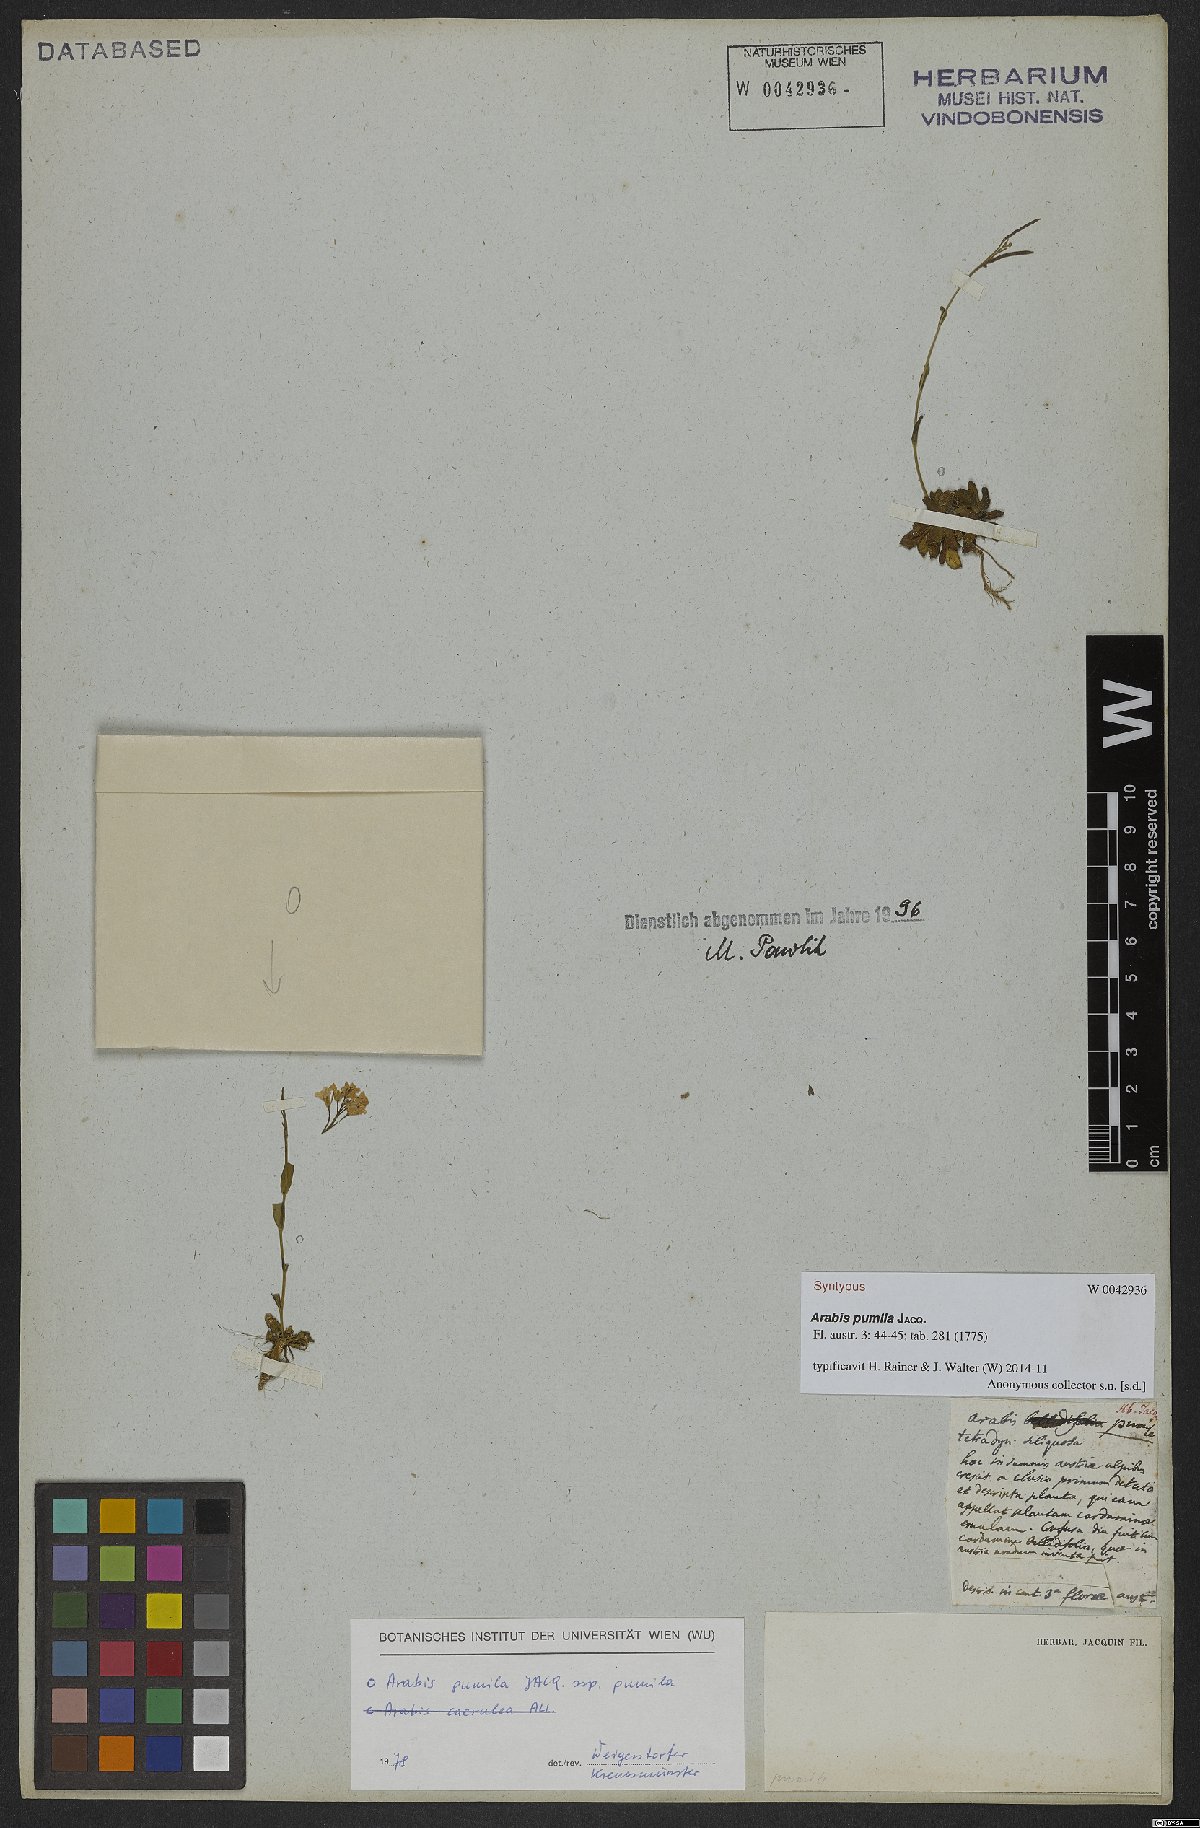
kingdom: Plantae
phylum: Tracheophyta
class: Magnoliopsida
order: Brassicales
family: Brassicaceae
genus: Arabis
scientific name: Arabis pumila
